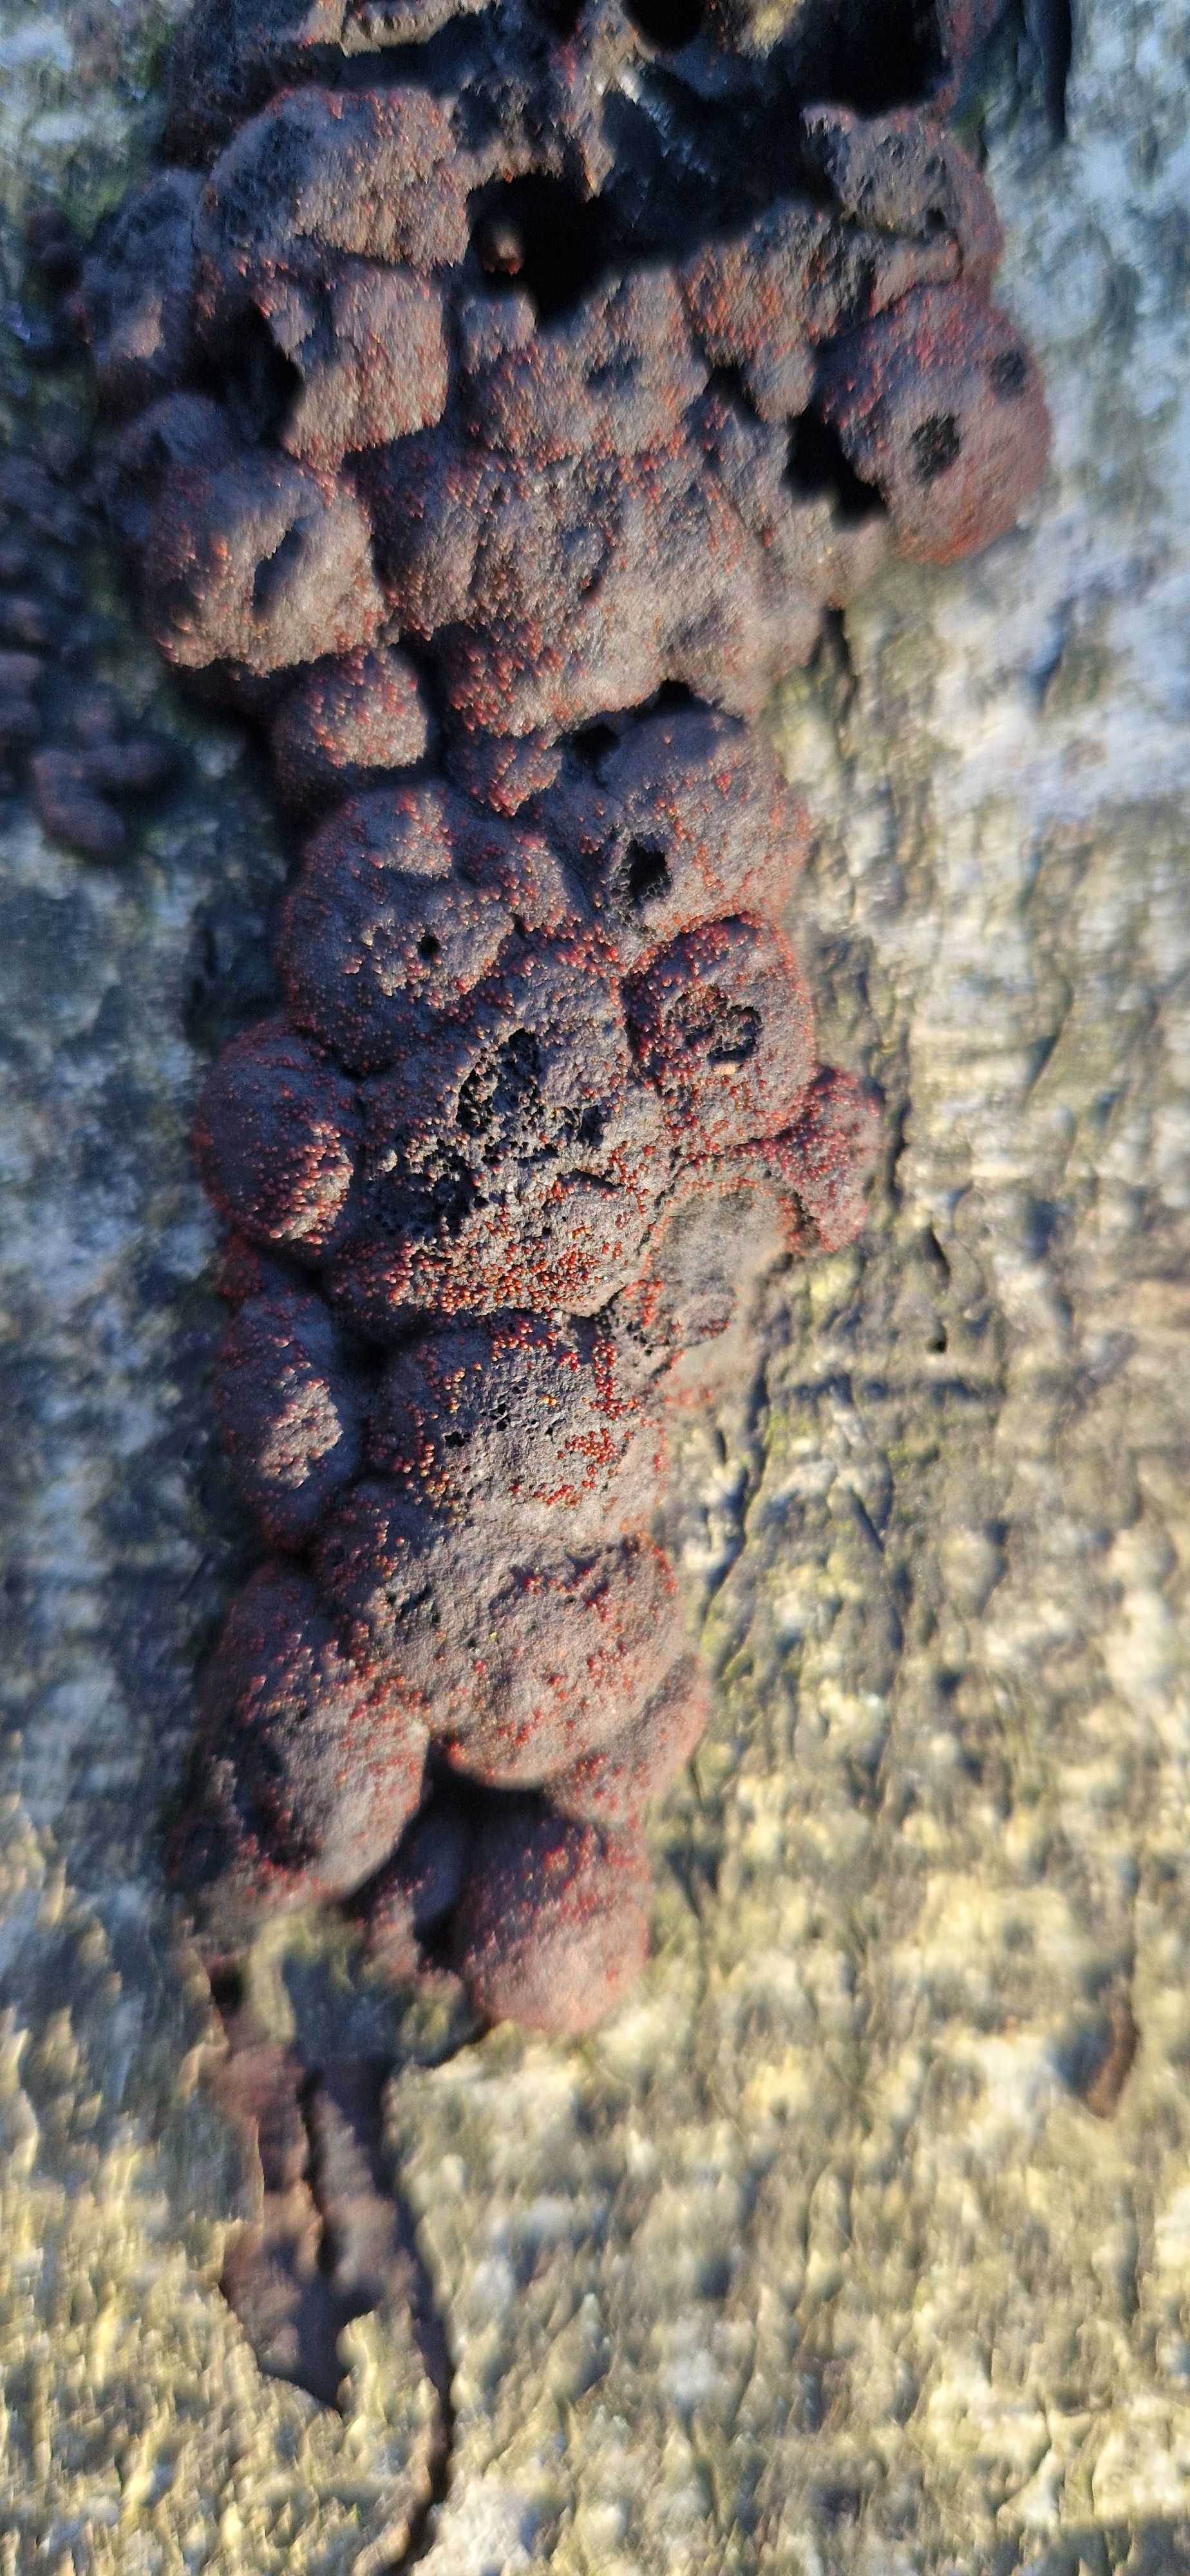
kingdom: Fungi
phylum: Ascomycota
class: Sordariomycetes
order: Hypocreales
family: Nectriaceae
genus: Cosmospora
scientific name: Cosmospora arxii
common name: kuljordbær-cinnobersvamp
